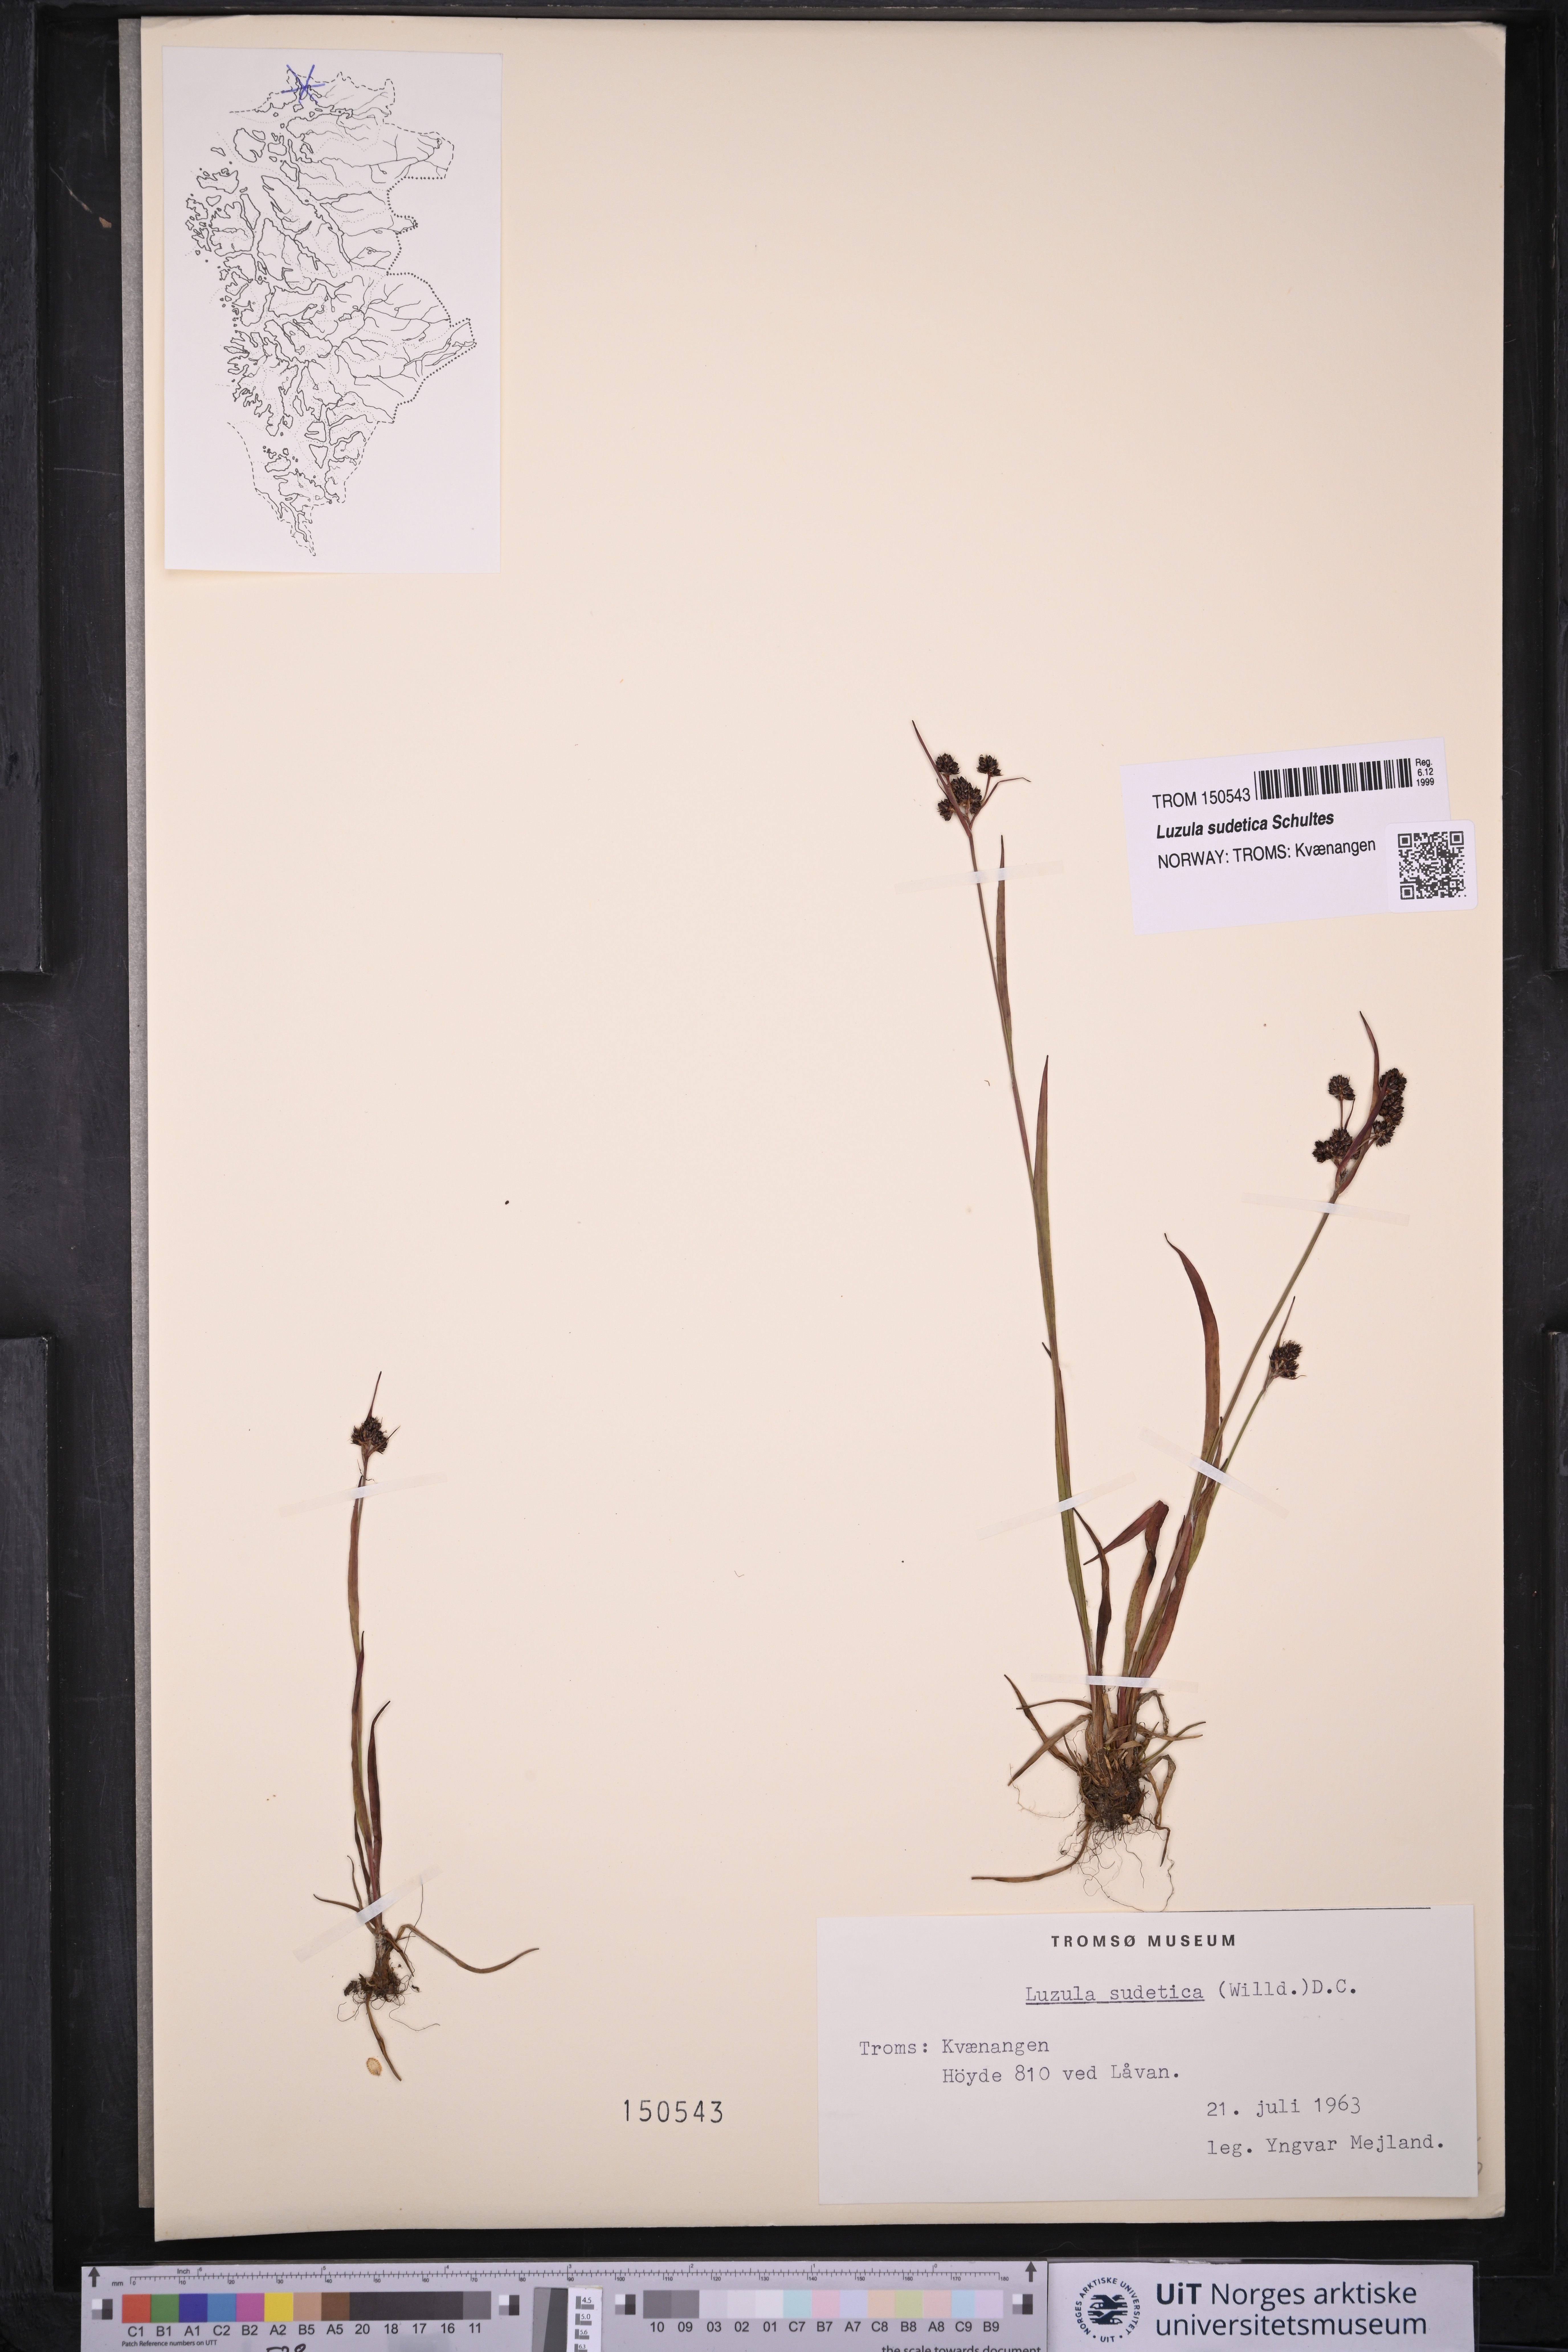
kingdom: Plantae
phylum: Tracheophyta
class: Liliopsida
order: Poales
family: Juncaceae
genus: Luzula
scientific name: Luzula sudetica
